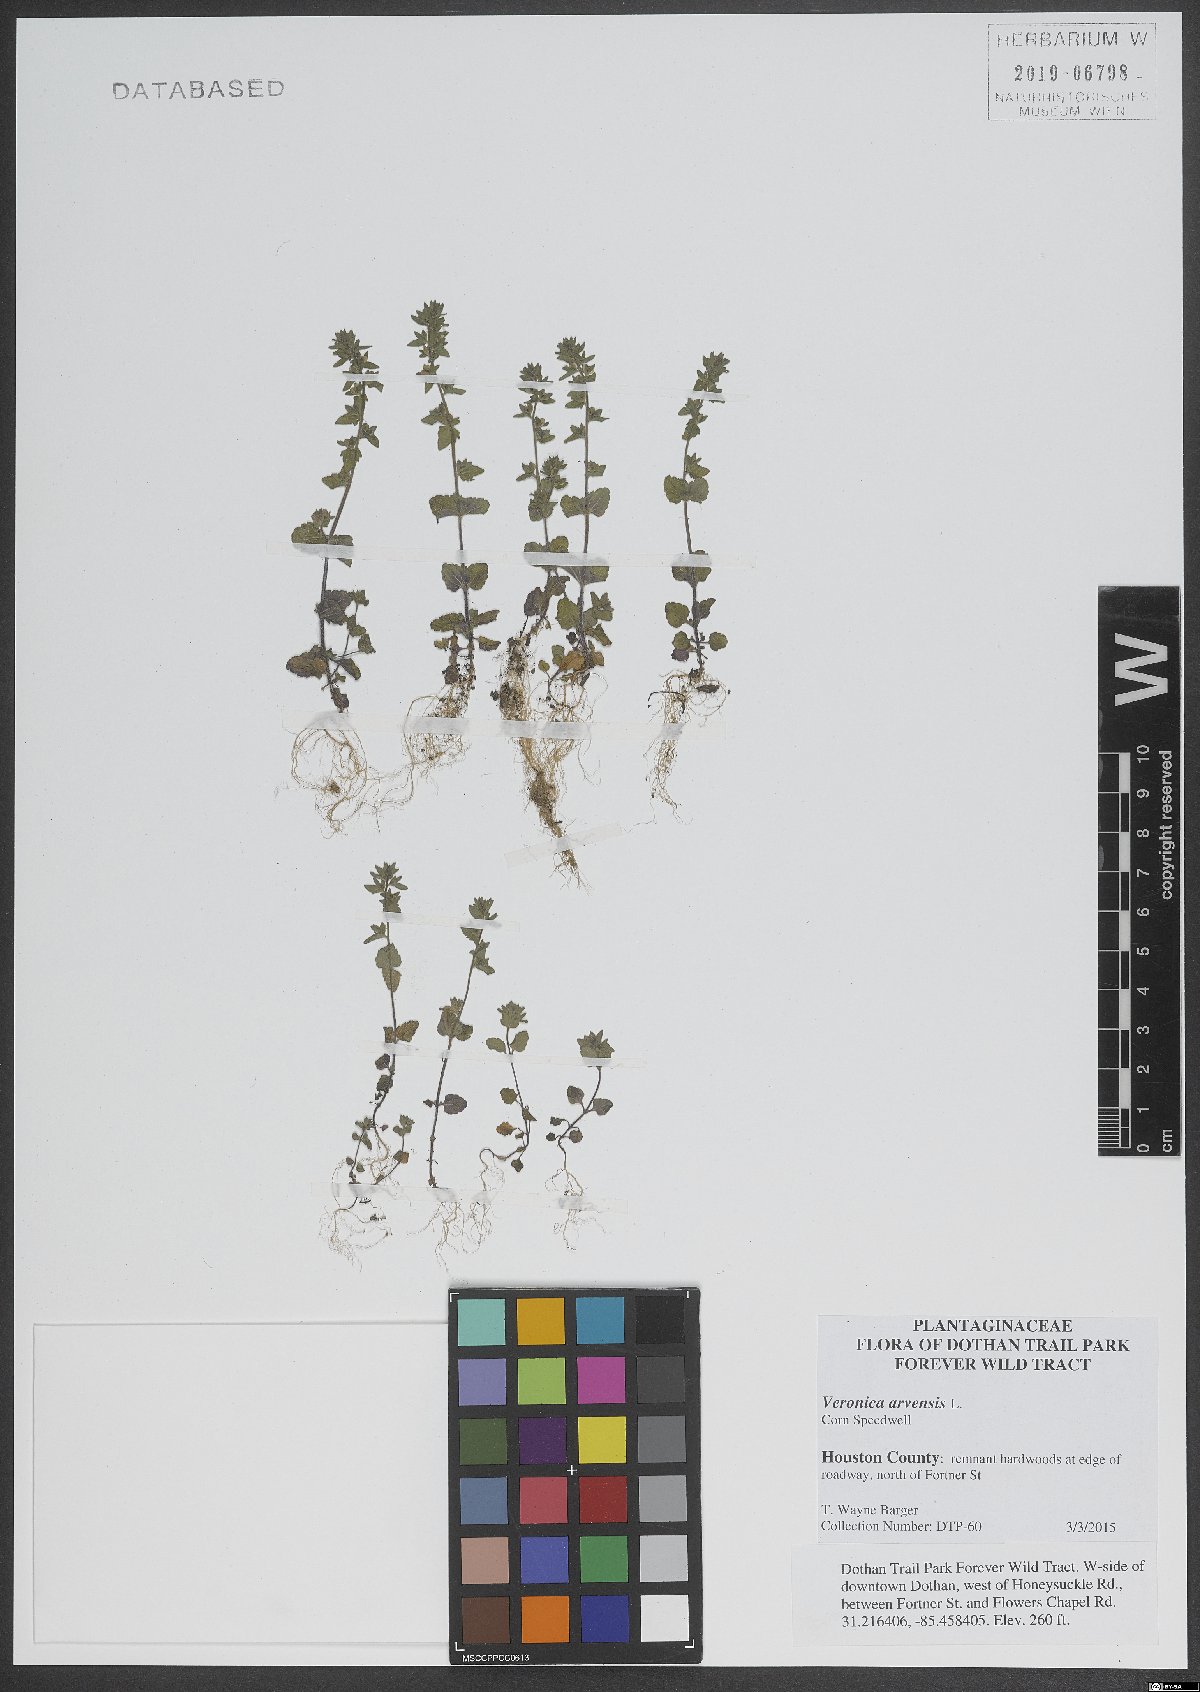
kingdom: Plantae
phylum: Tracheophyta
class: Magnoliopsida
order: Lamiales
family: Plantaginaceae
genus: Veronica
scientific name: Veronica arvensis
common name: Corn speedwell
